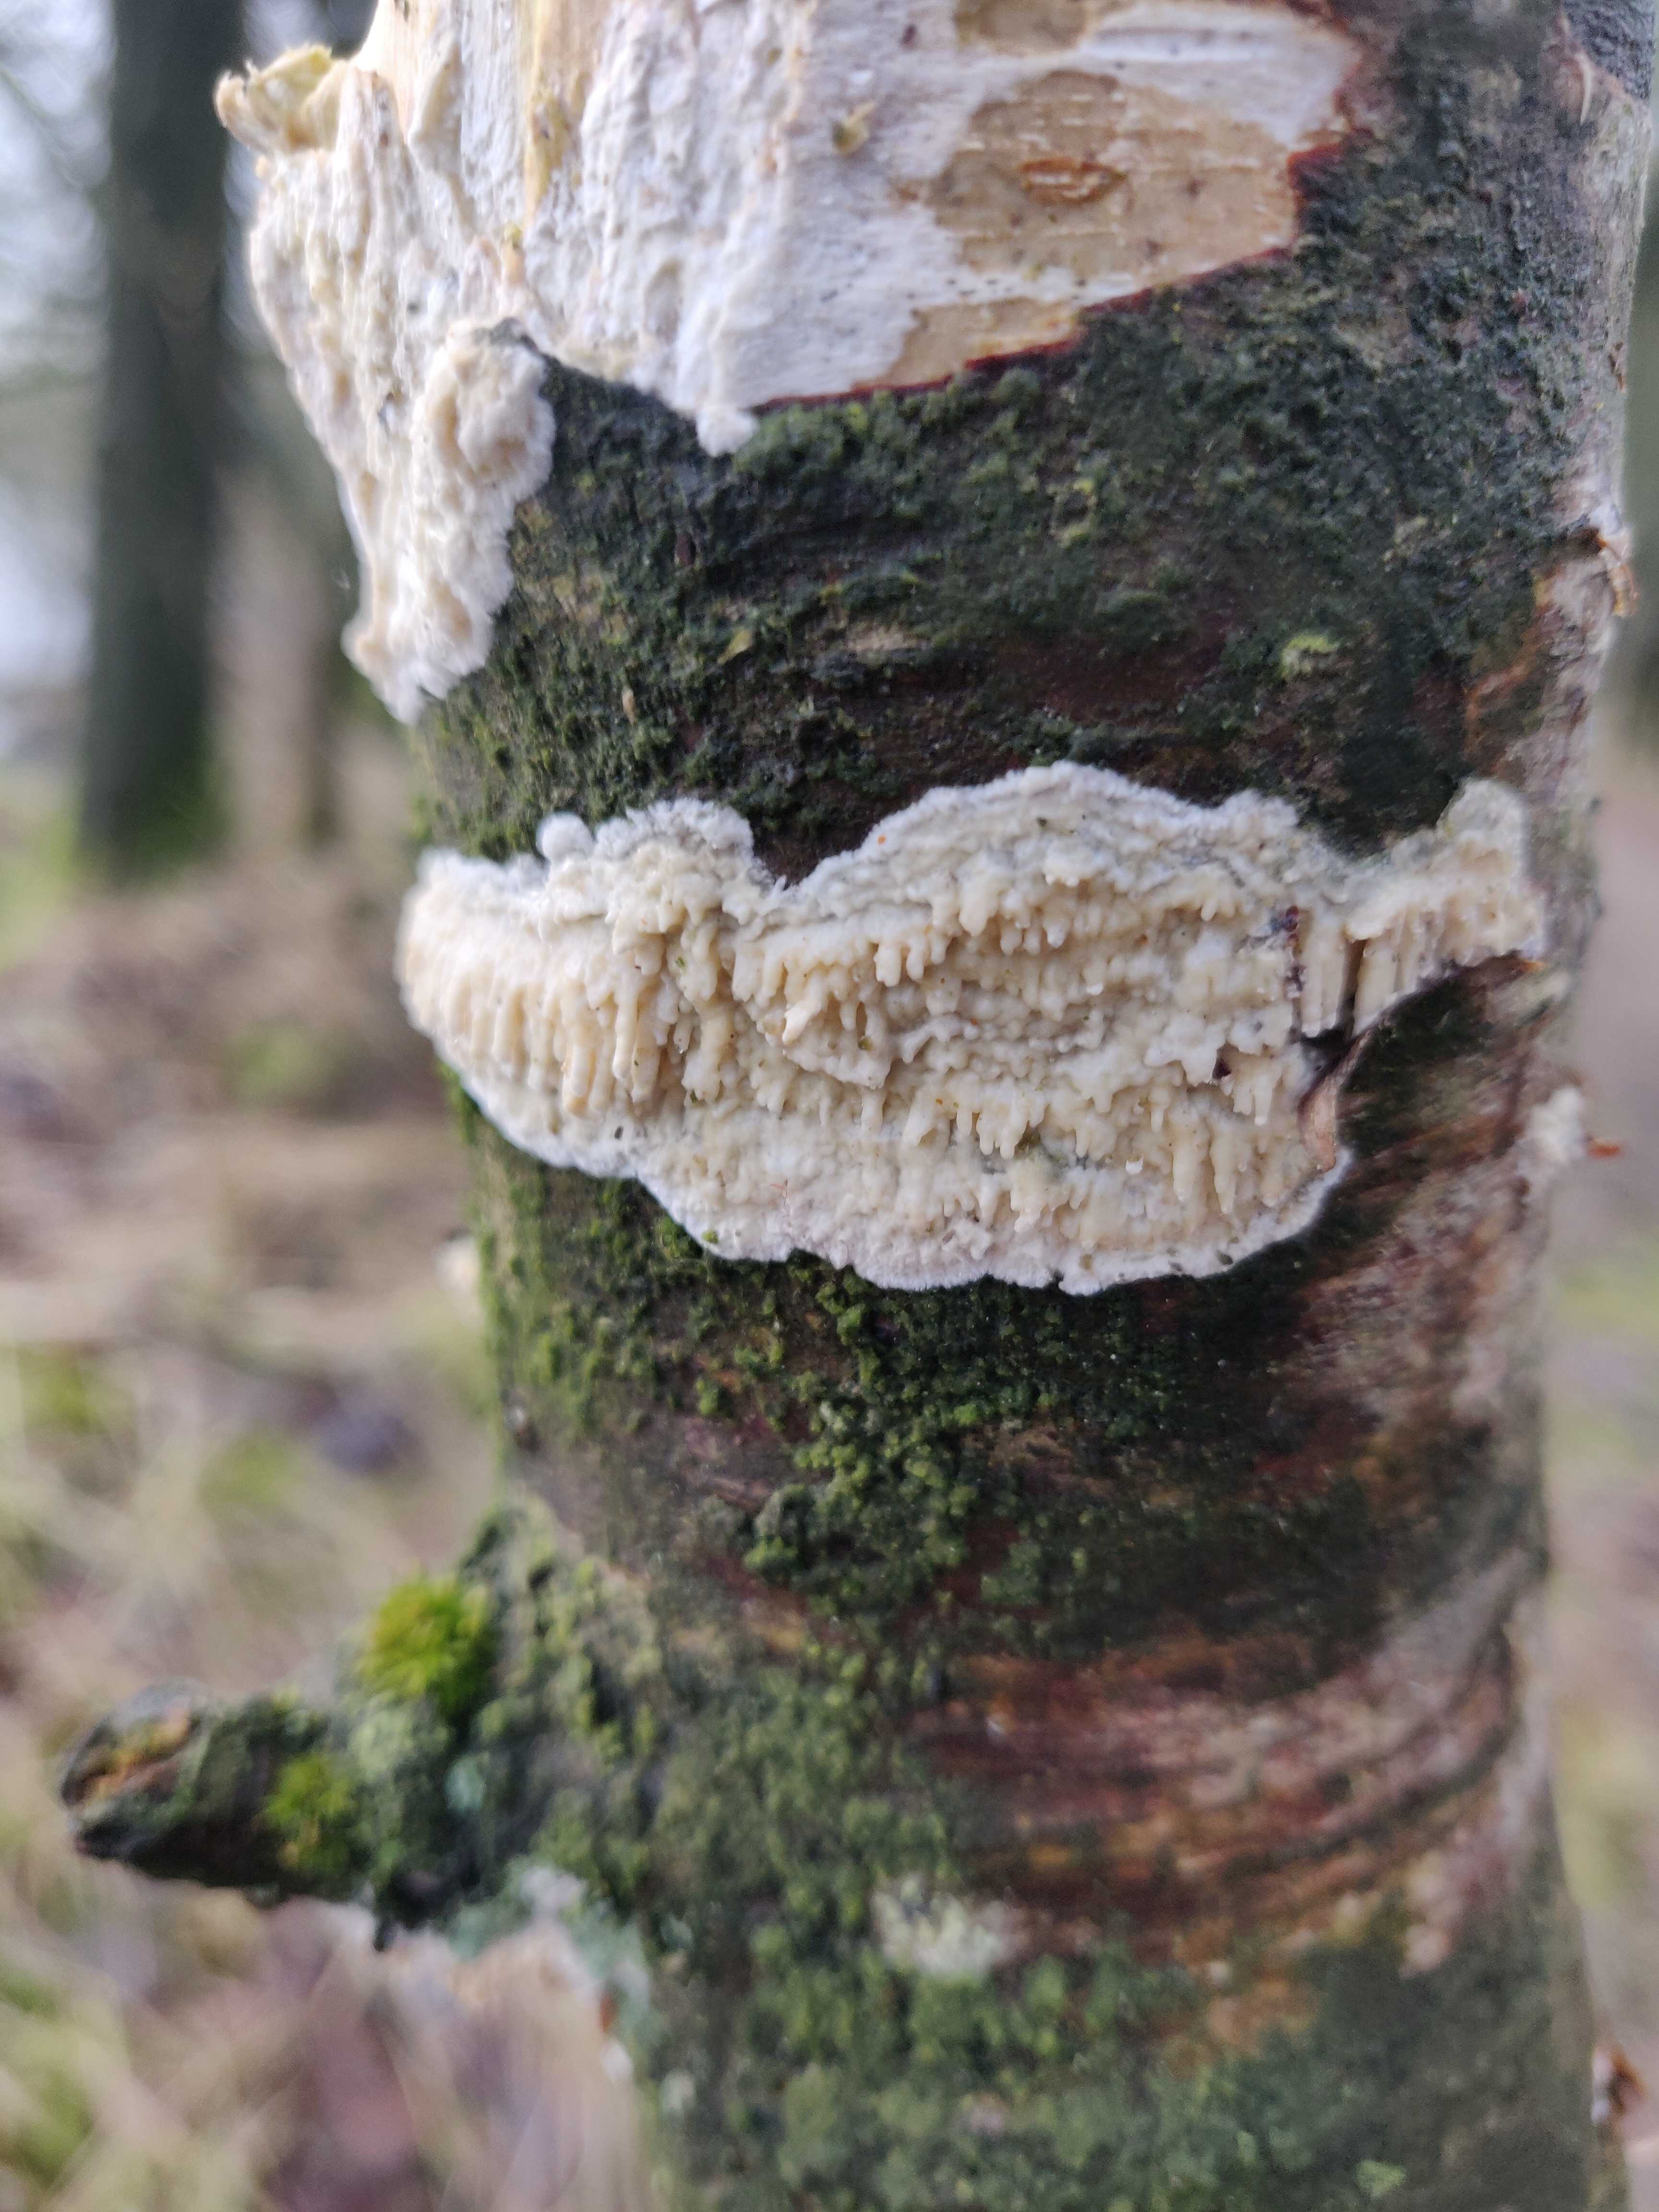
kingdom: Fungi
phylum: Basidiomycota
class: Agaricomycetes
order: Hymenochaetales
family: Schizoporaceae
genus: Xylodon
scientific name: Xylodon radula
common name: grovtandet kalkskind
